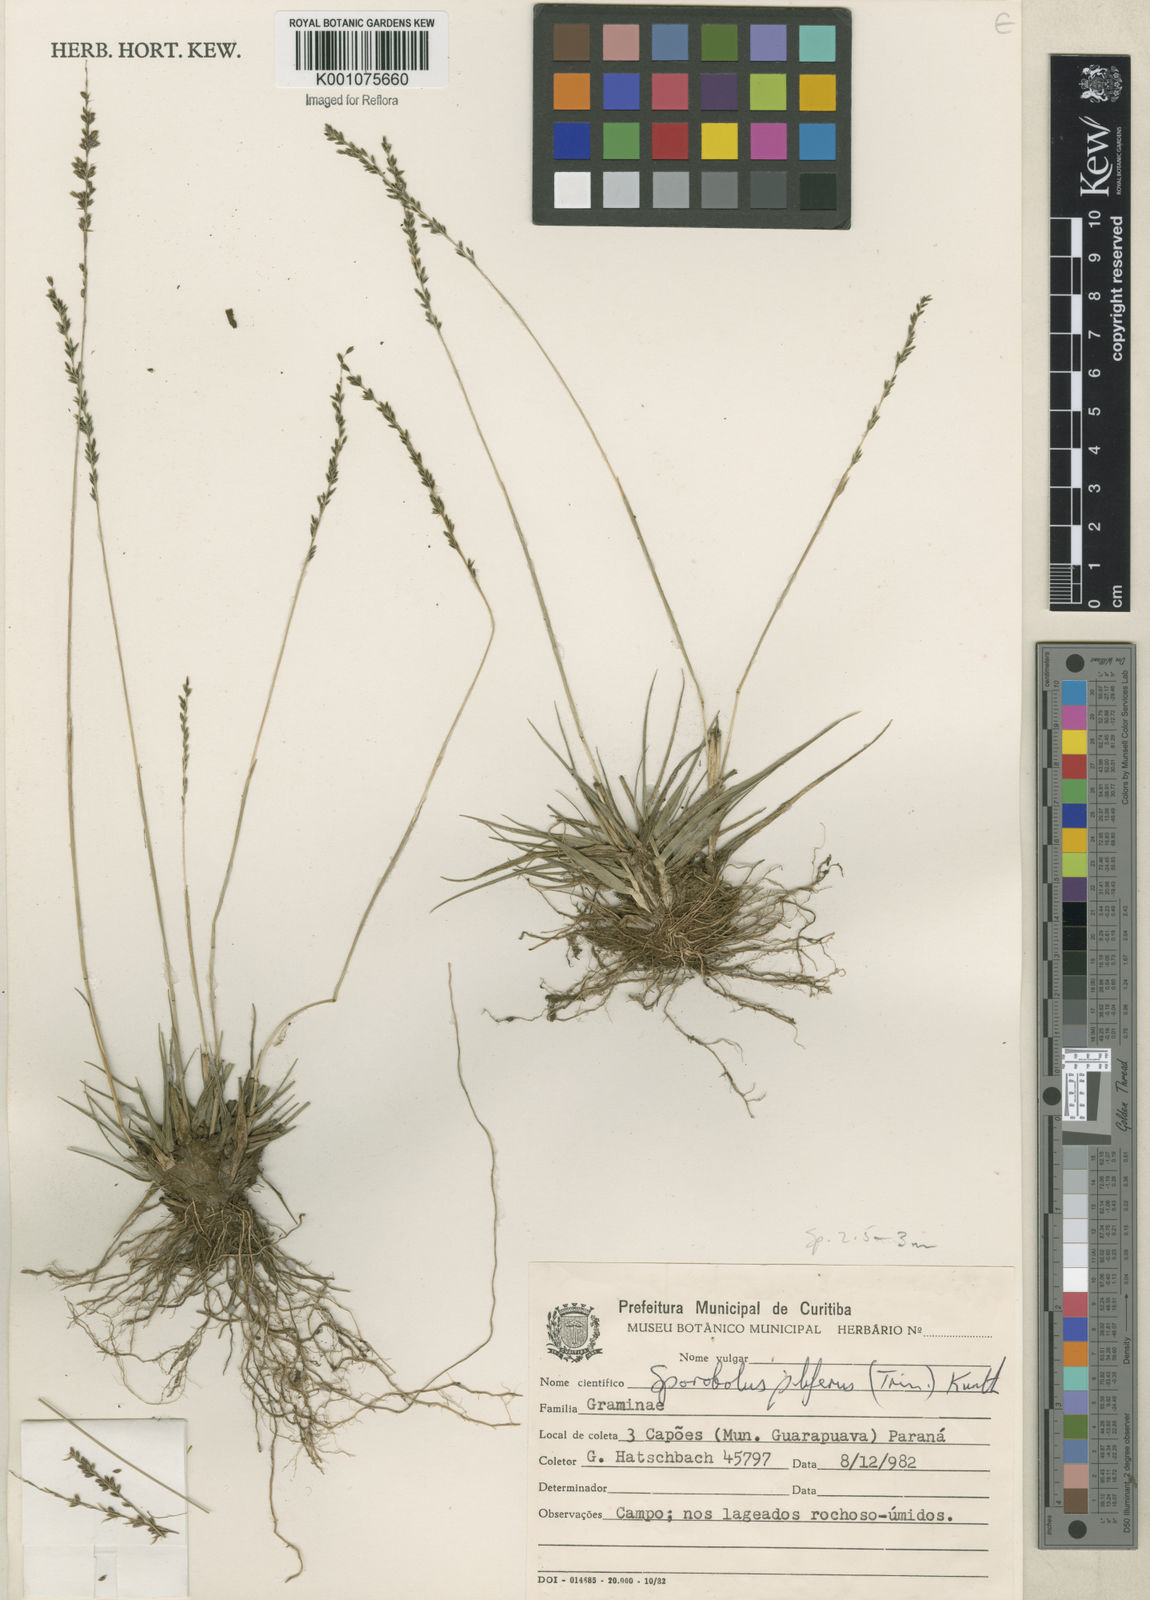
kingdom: Plantae
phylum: Tracheophyta
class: Liliopsida
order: Poales
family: Poaceae
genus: Sporobolus
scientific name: Sporobolus pilifer
